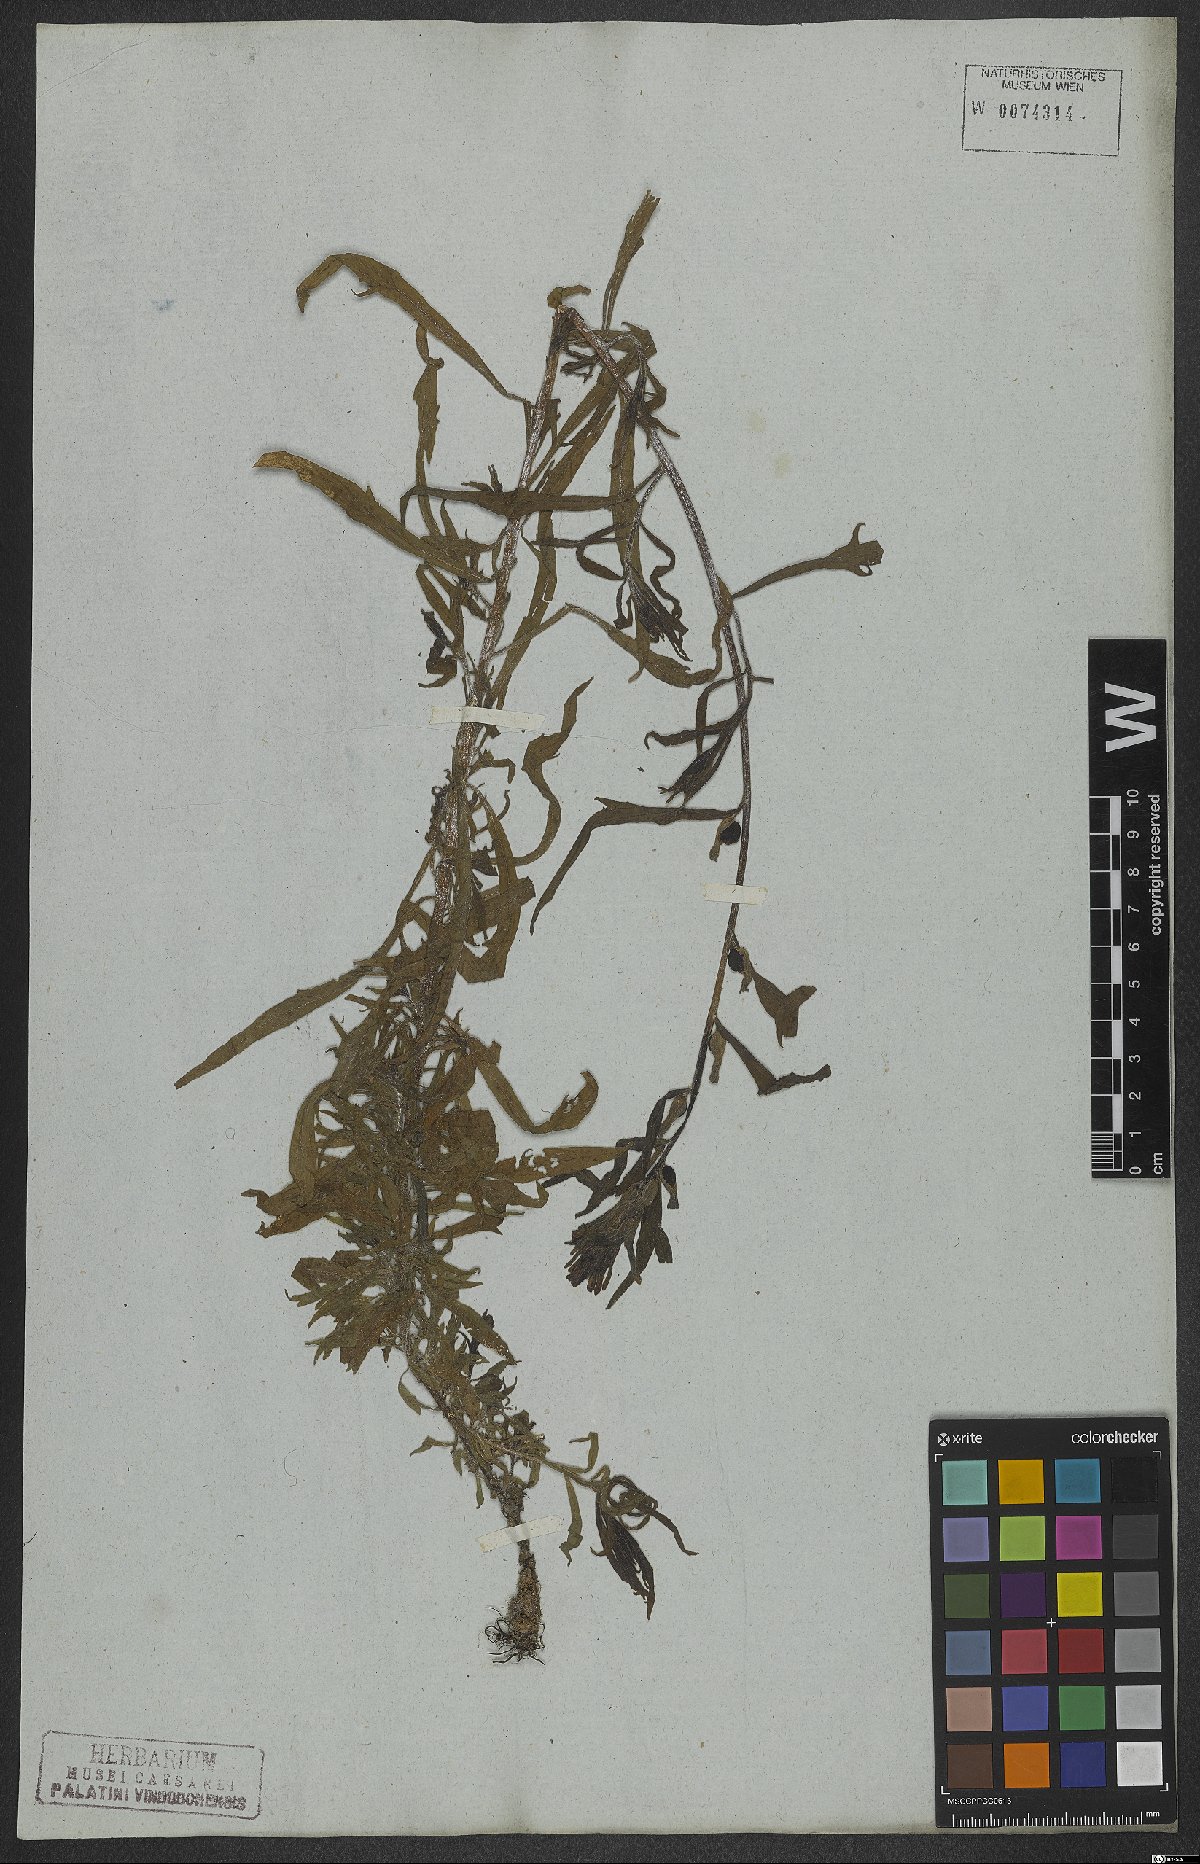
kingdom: Plantae
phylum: Tracheophyta
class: Magnoliopsida
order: Lamiales
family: Orobanchaceae
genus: Castilleja
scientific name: Castilleja arvensis
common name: Indian paintbrush
